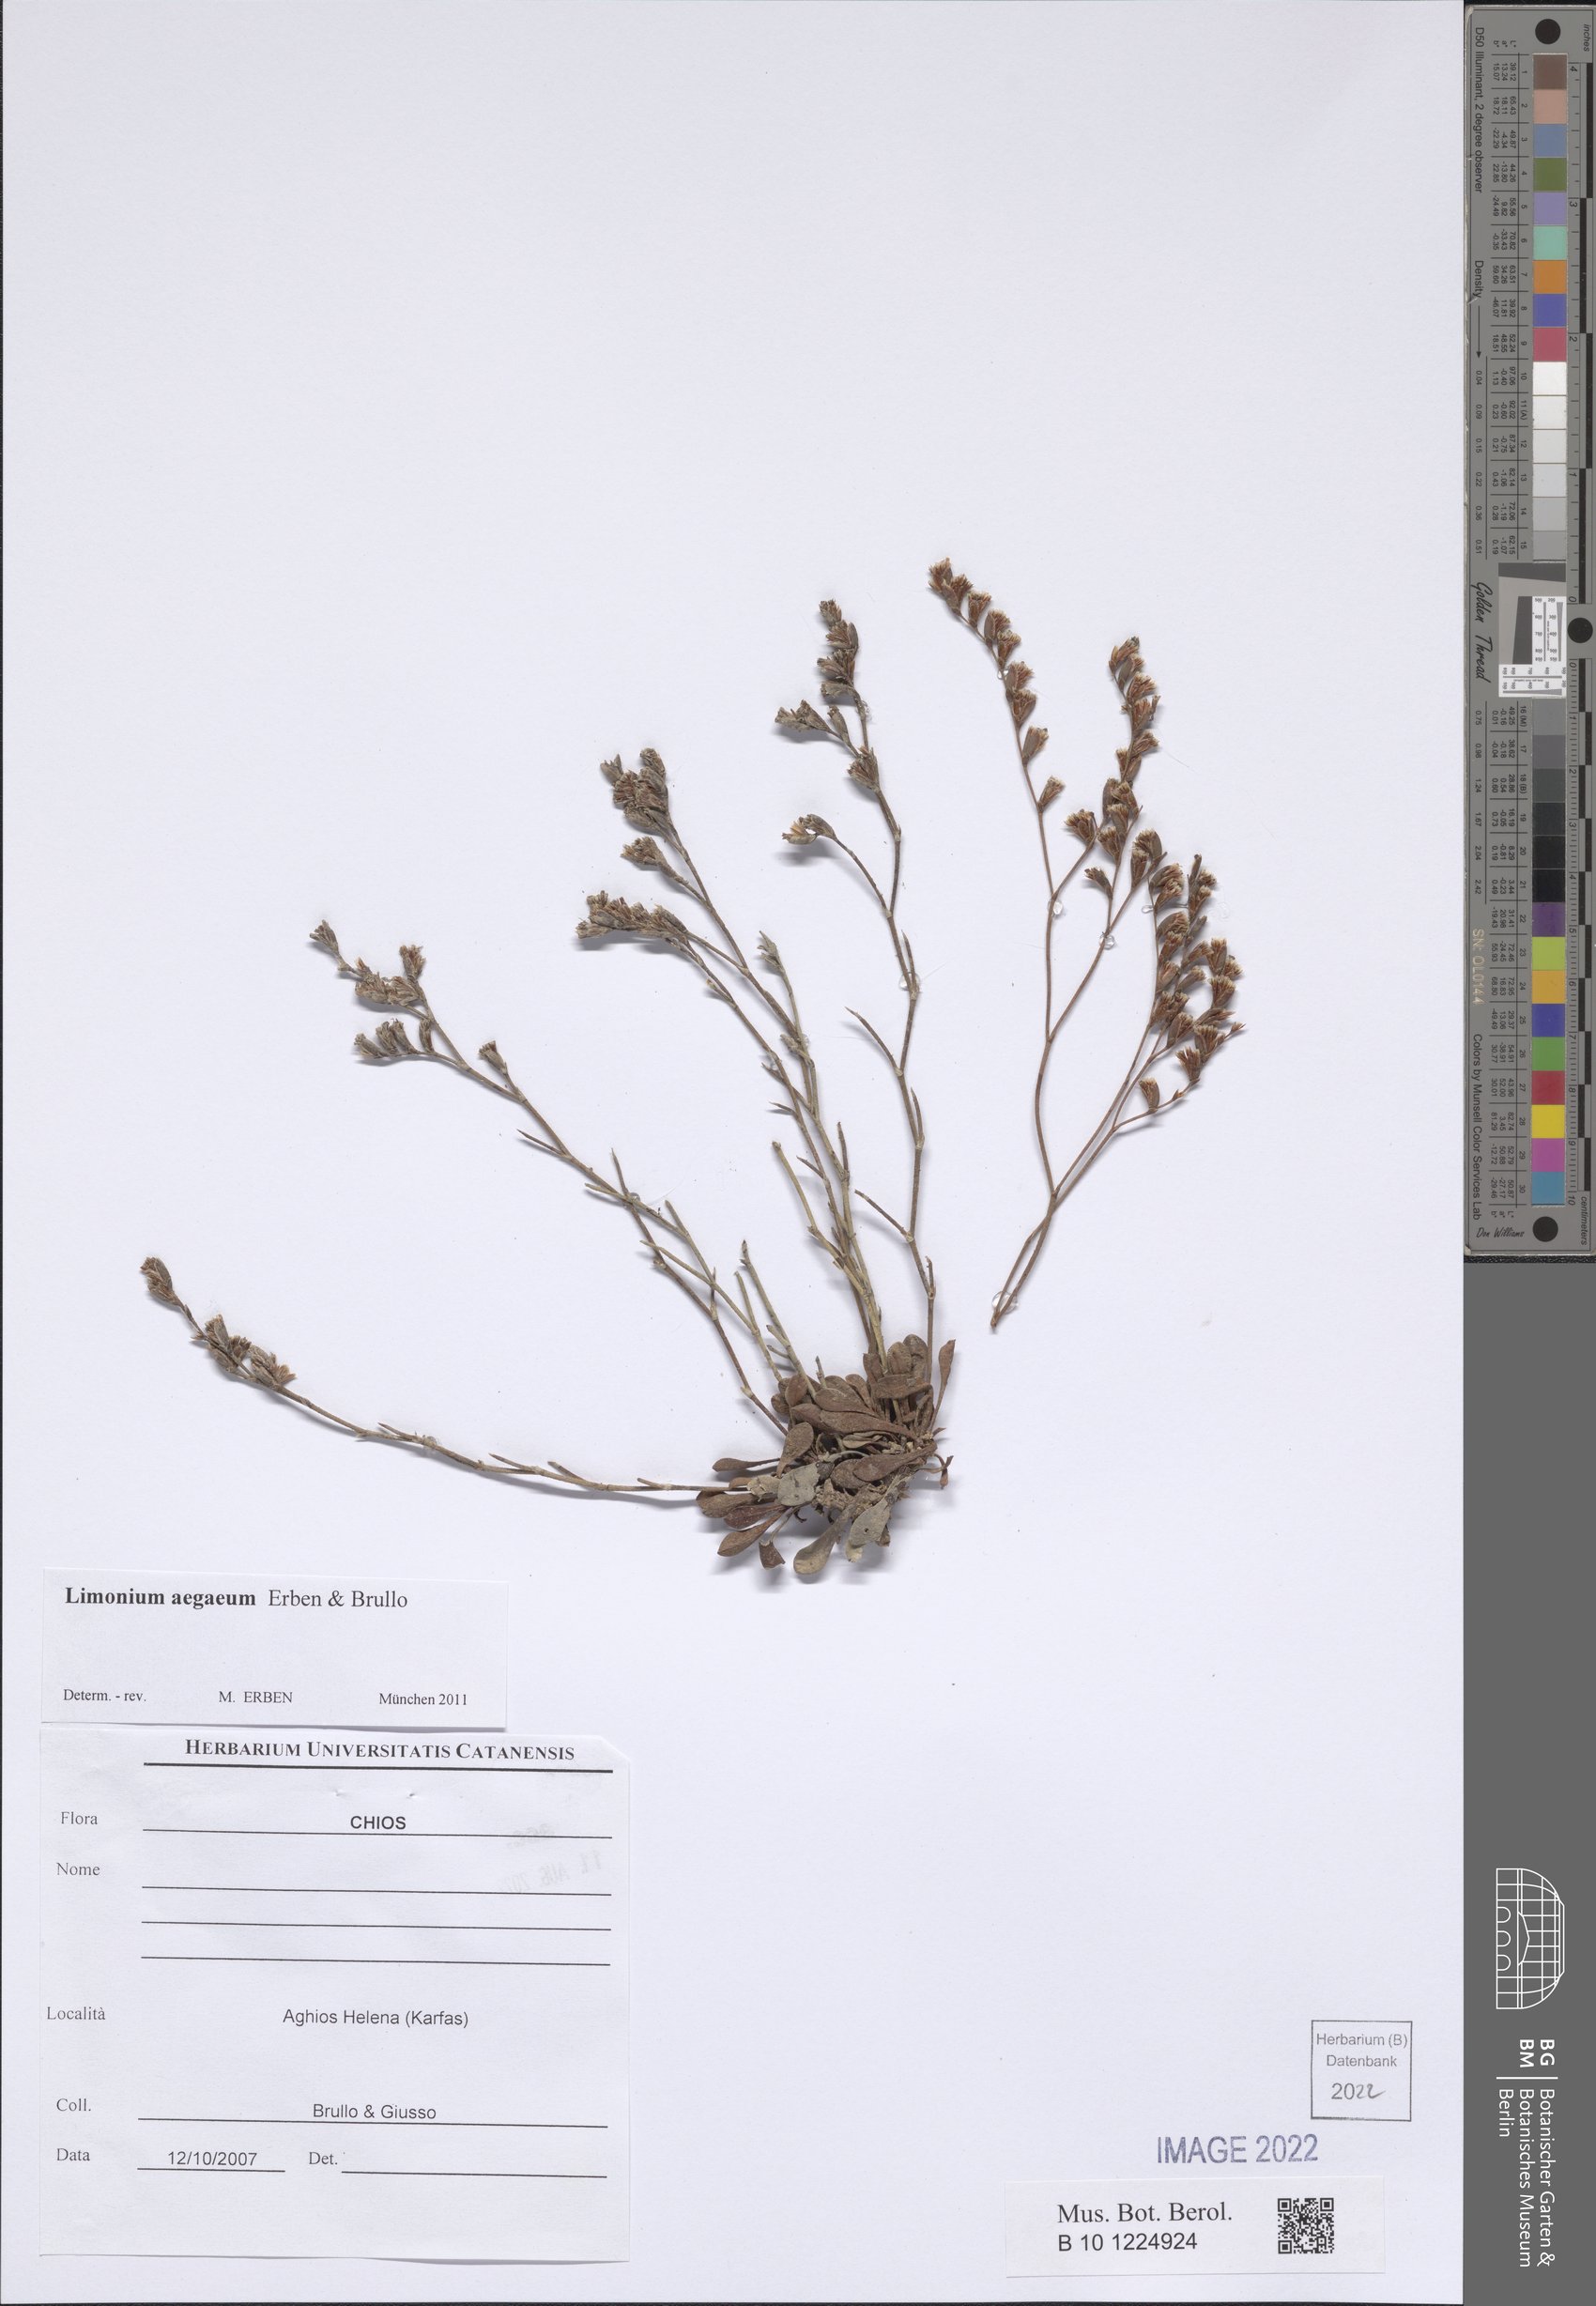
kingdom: Plantae
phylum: Tracheophyta
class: Magnoliopsida
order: Caryophyllales
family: Plumbaginaceae
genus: Limonium
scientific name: Limonium aegaeum
